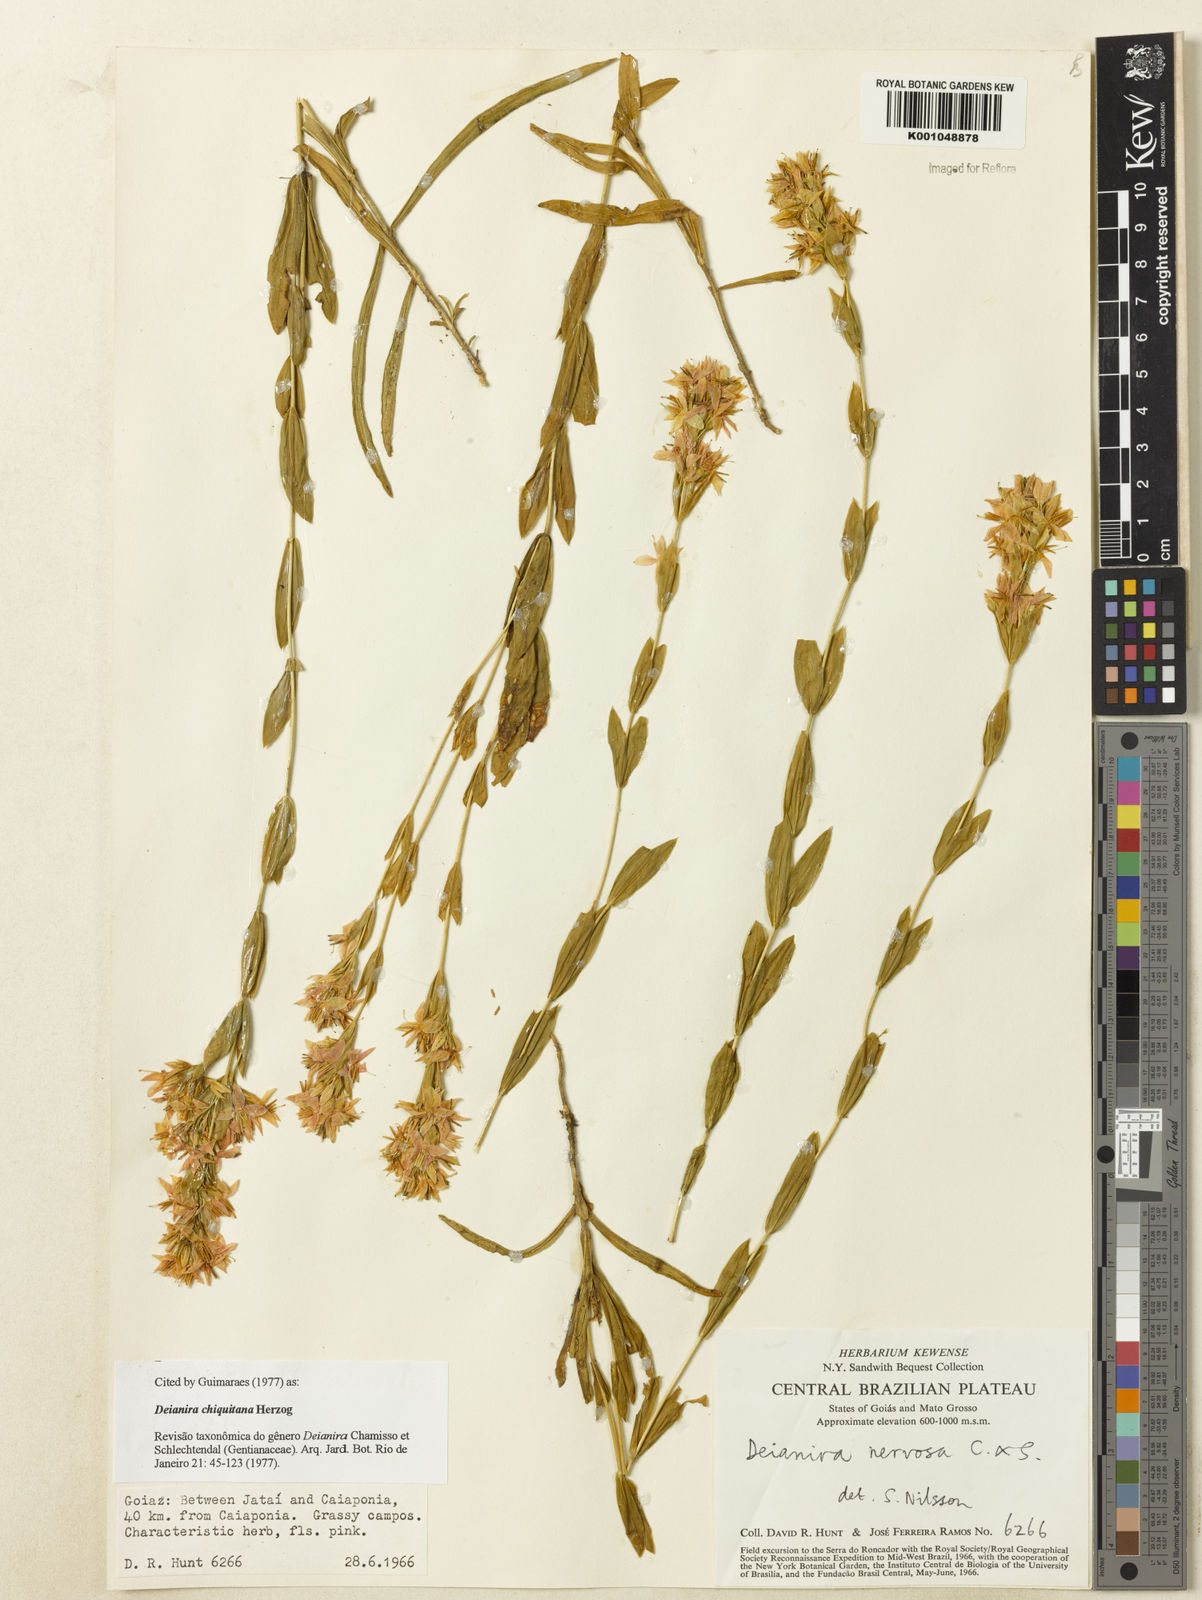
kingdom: Plantae
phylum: Tracheophyta
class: Magnoliopsida
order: Gentianales
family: Gentianaceae
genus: Deianira
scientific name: Deianira chiquitana
